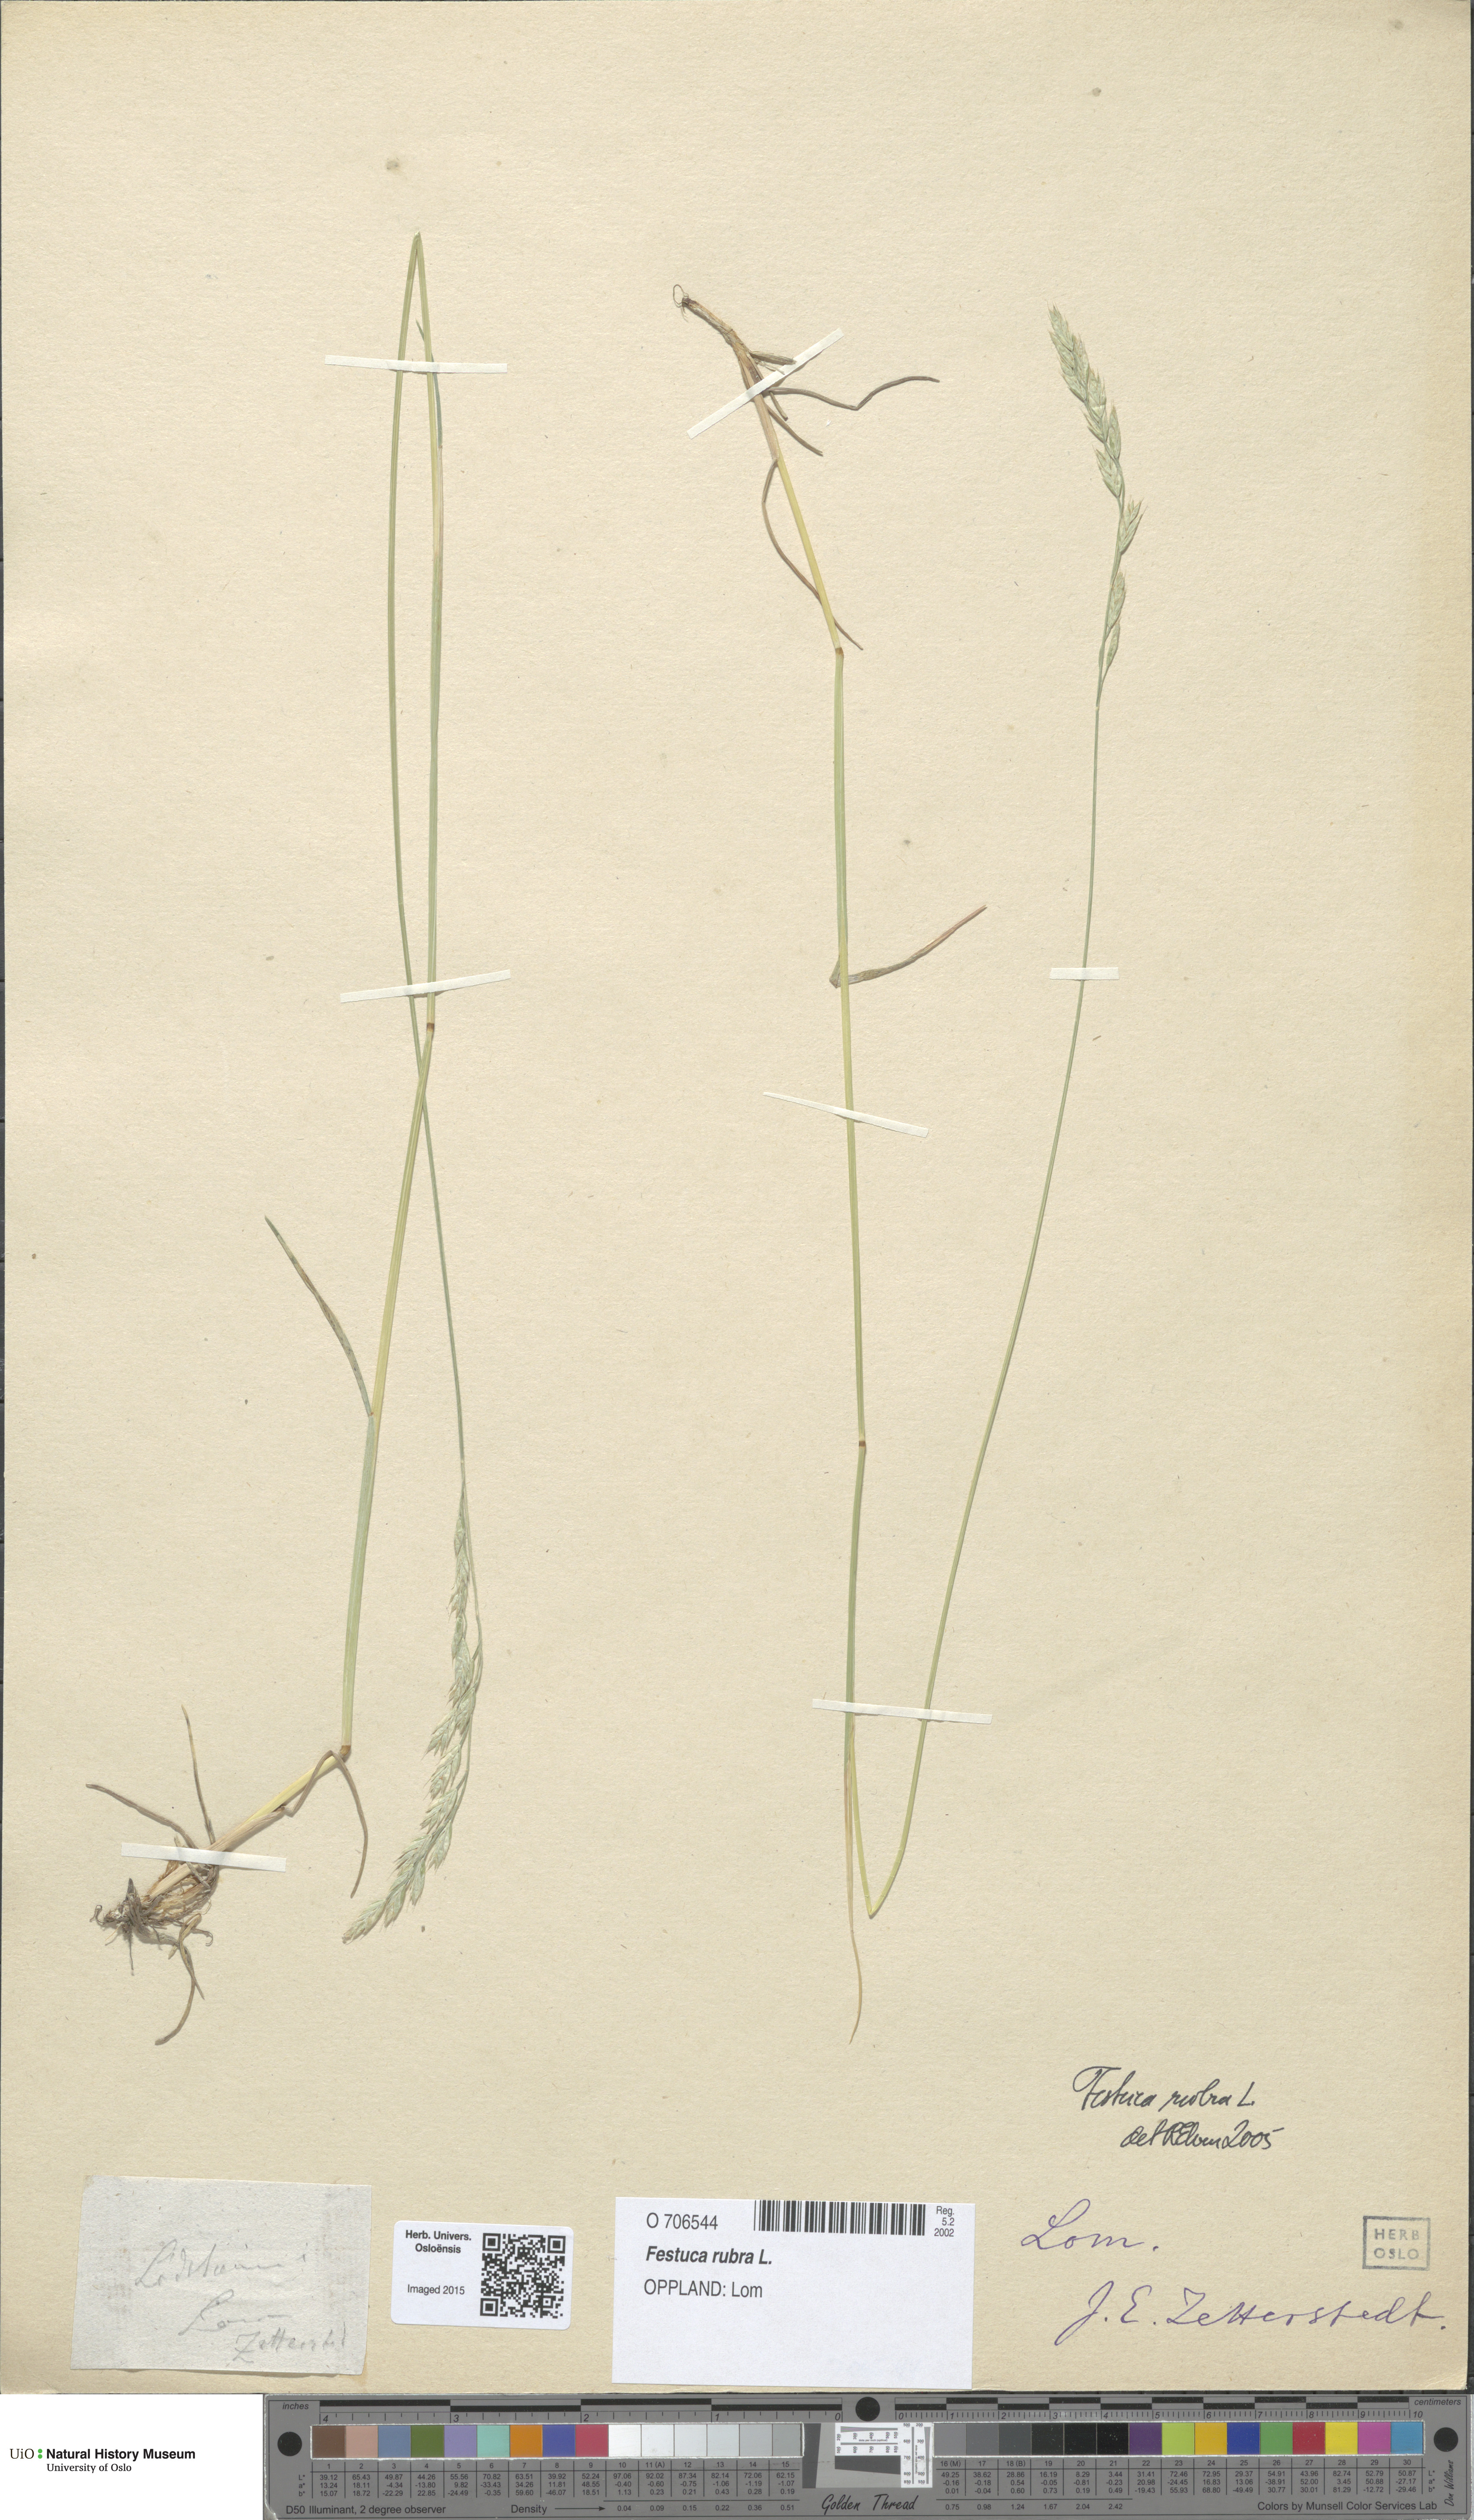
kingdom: Plantae
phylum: Tracheophyta
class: Liliopsida
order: Poales
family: Poaceae
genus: Festuca
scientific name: Festuca rubra
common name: Red fescue
